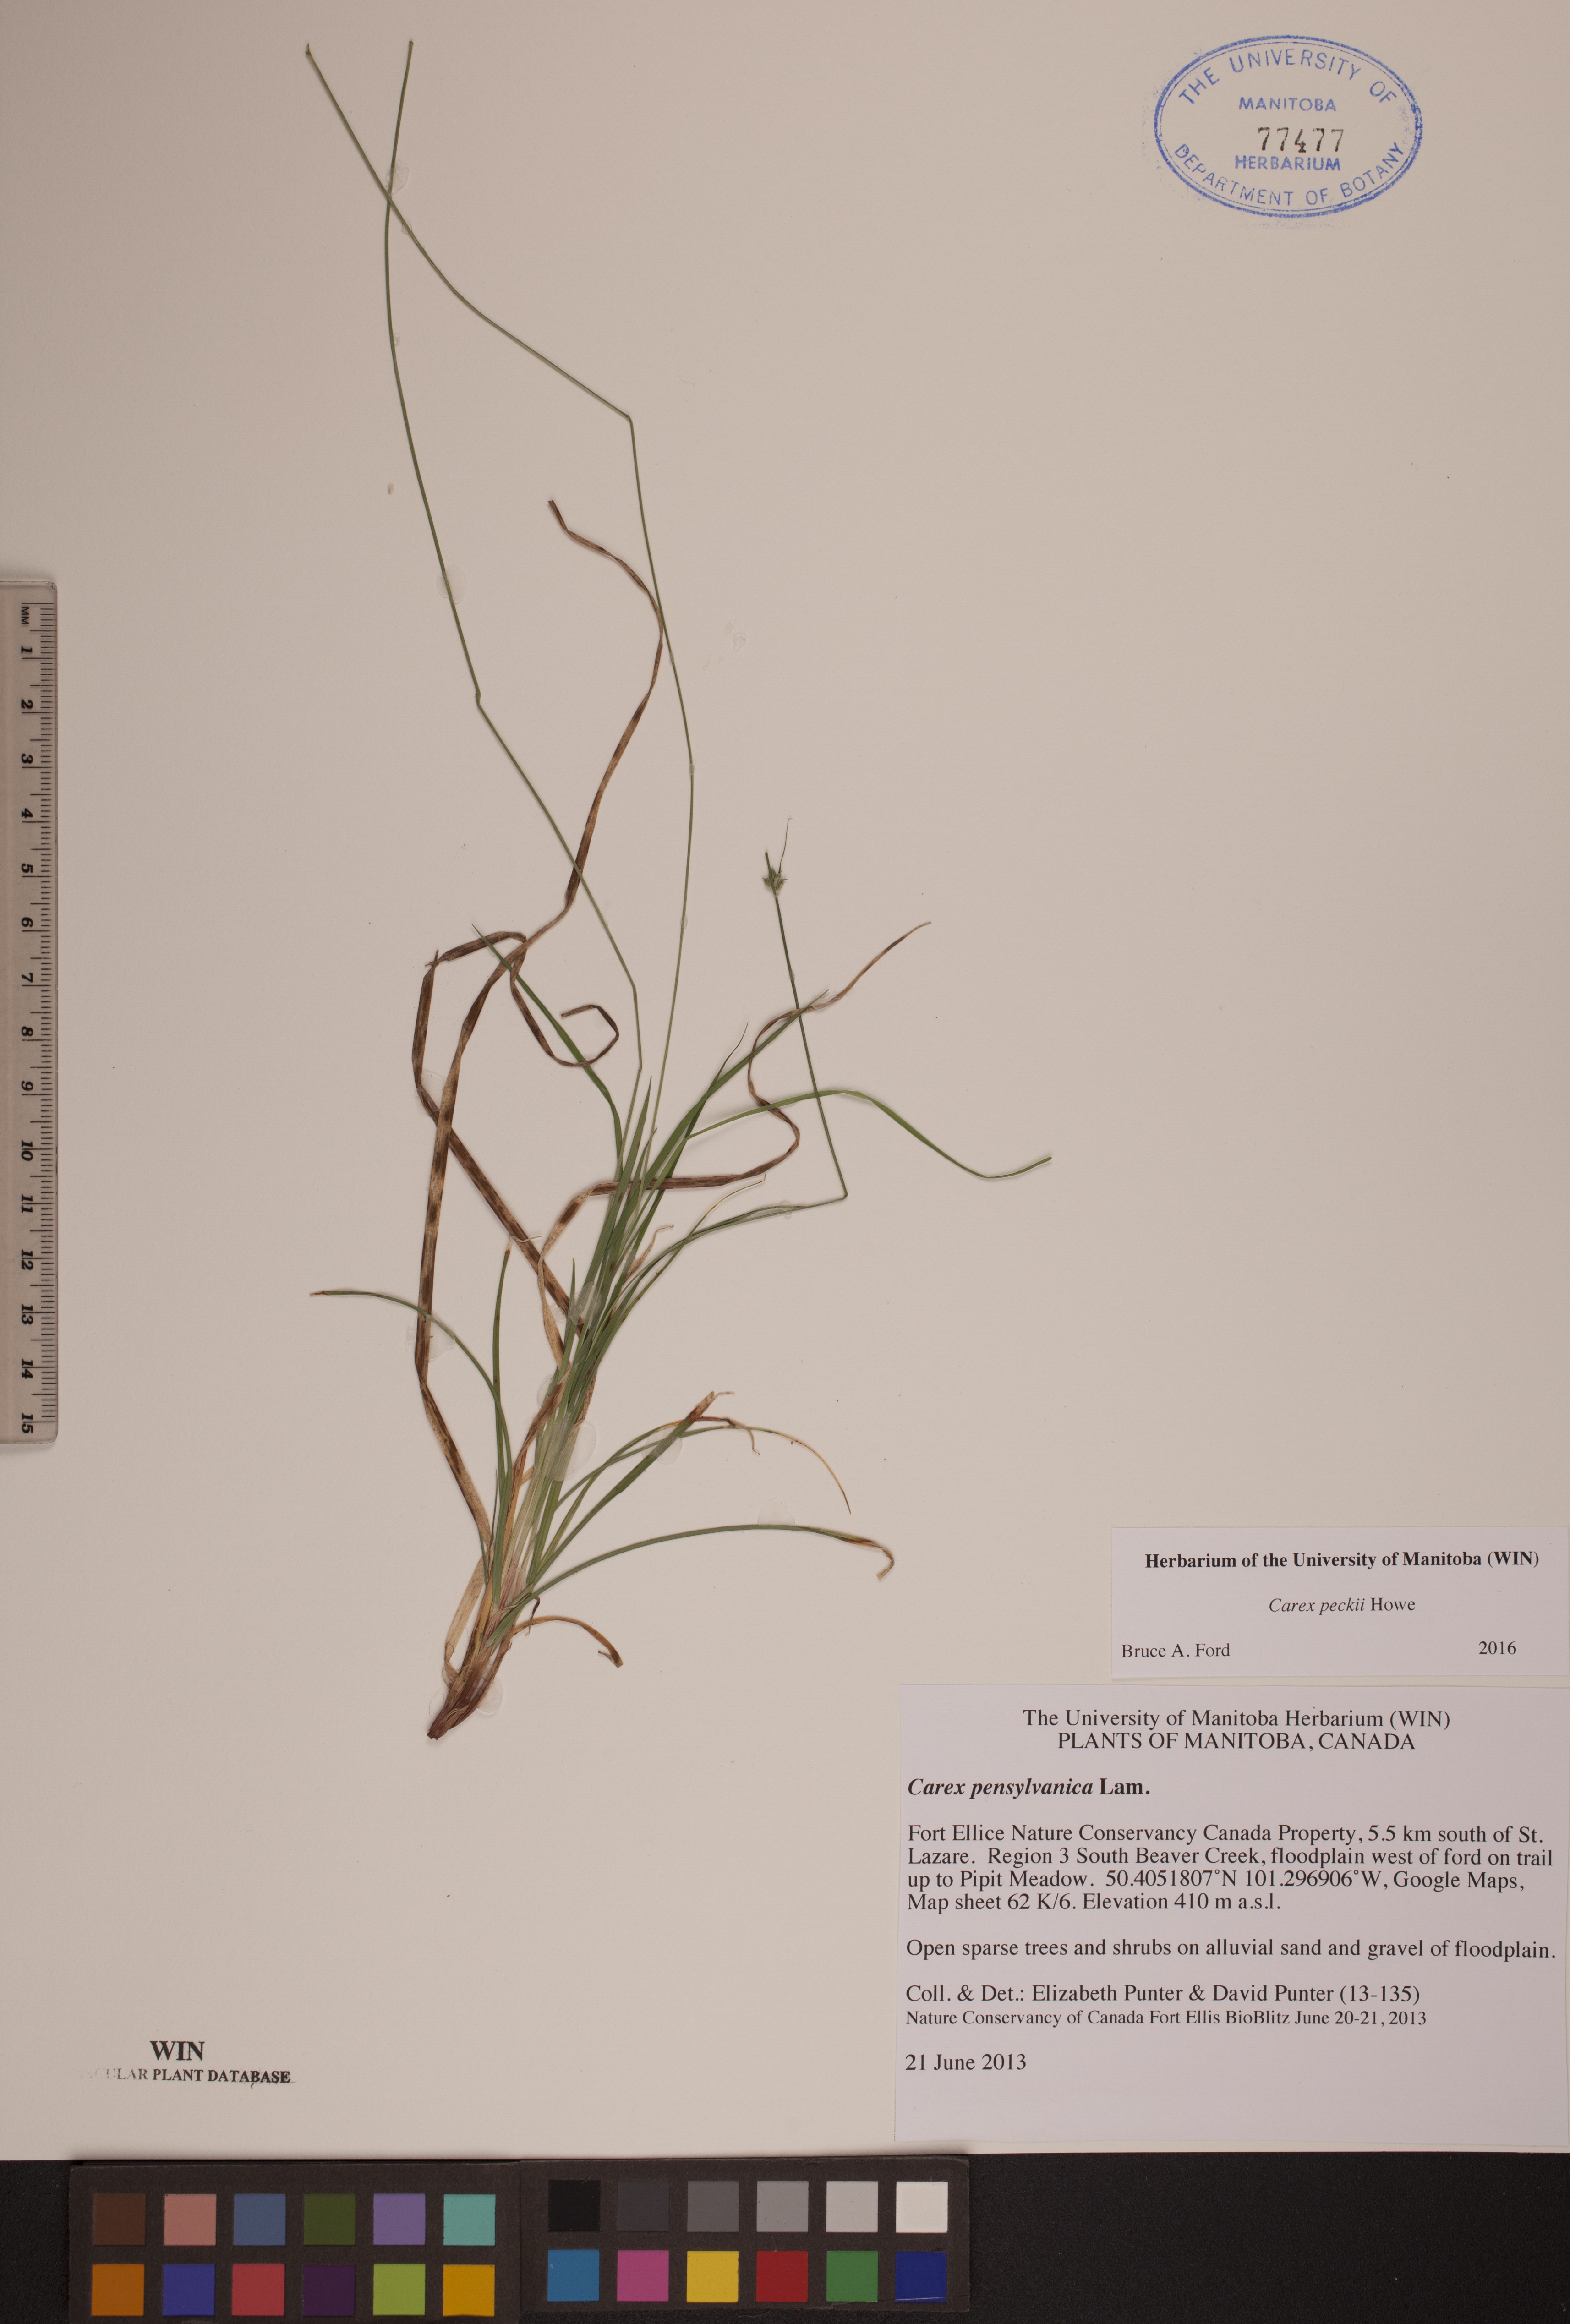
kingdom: Plantae
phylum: Tracheophyta
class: Liliopsida
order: Poales
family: Cyperaceae
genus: Carex
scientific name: Carex peckii
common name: Peck's oak sedge
